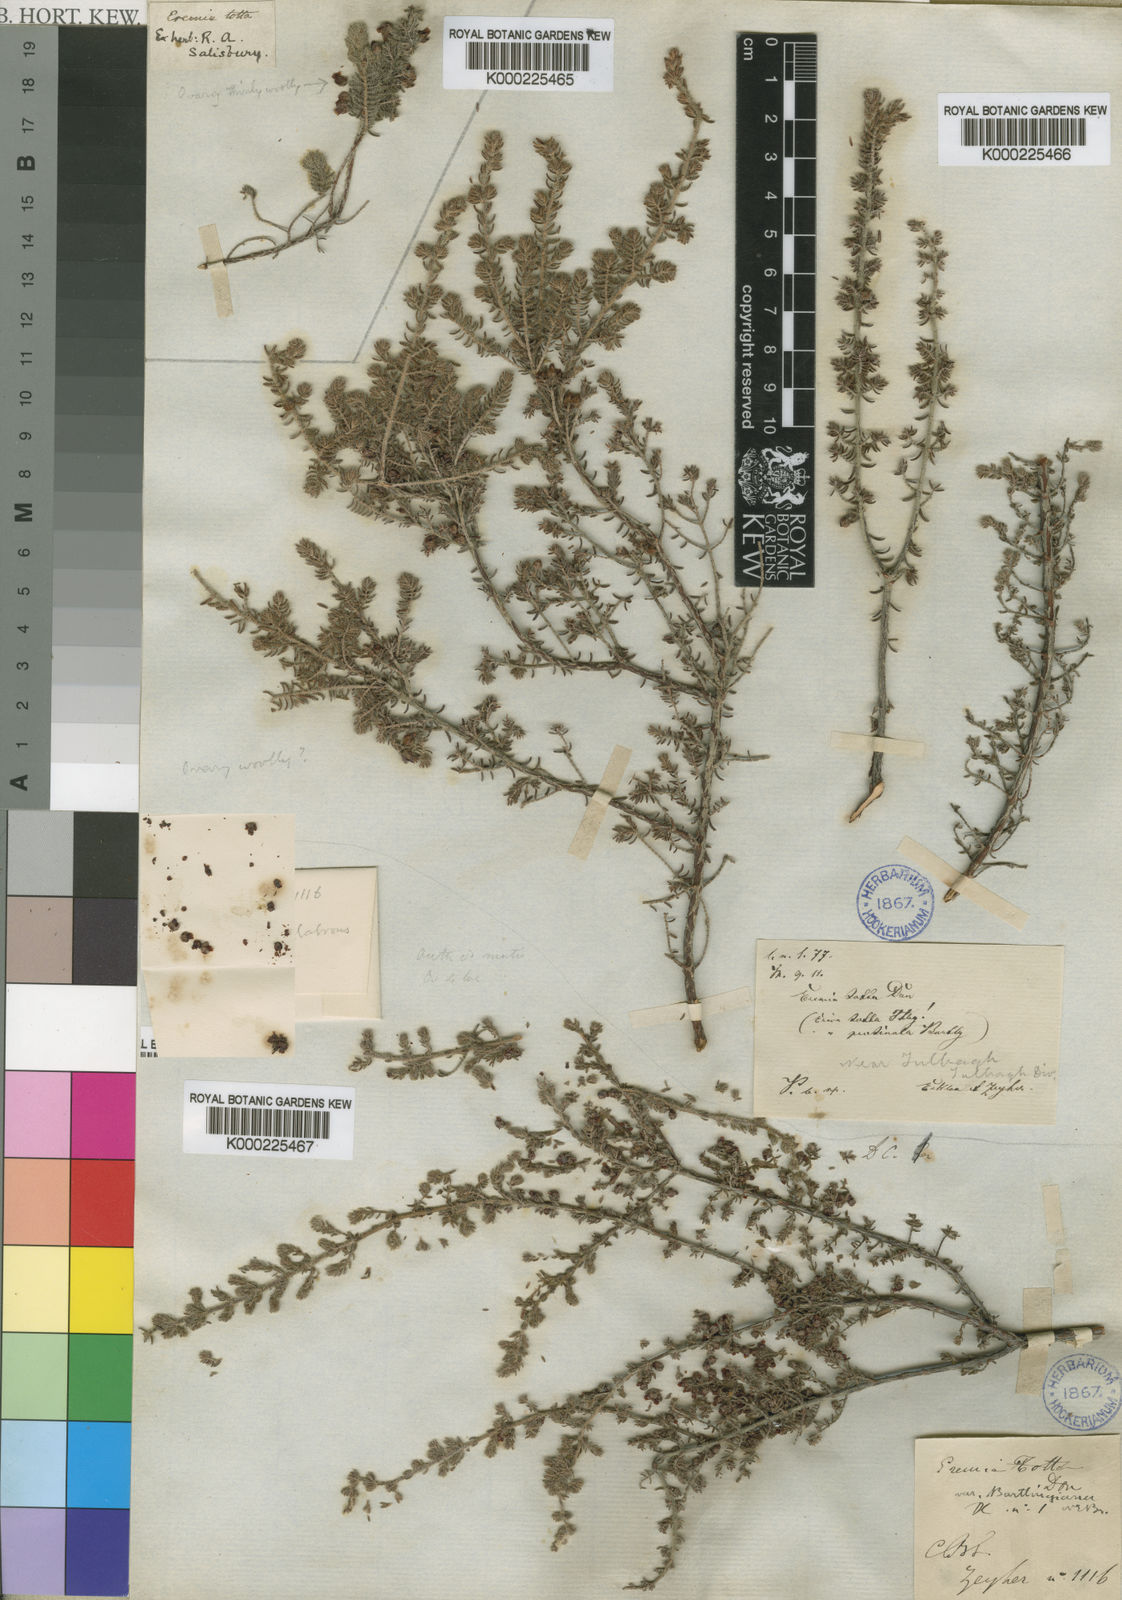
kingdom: Plantae
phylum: Tracheophyta
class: Magnoliopsida
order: Ericales
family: Ericaceae
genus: Erica
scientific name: Erica totta
